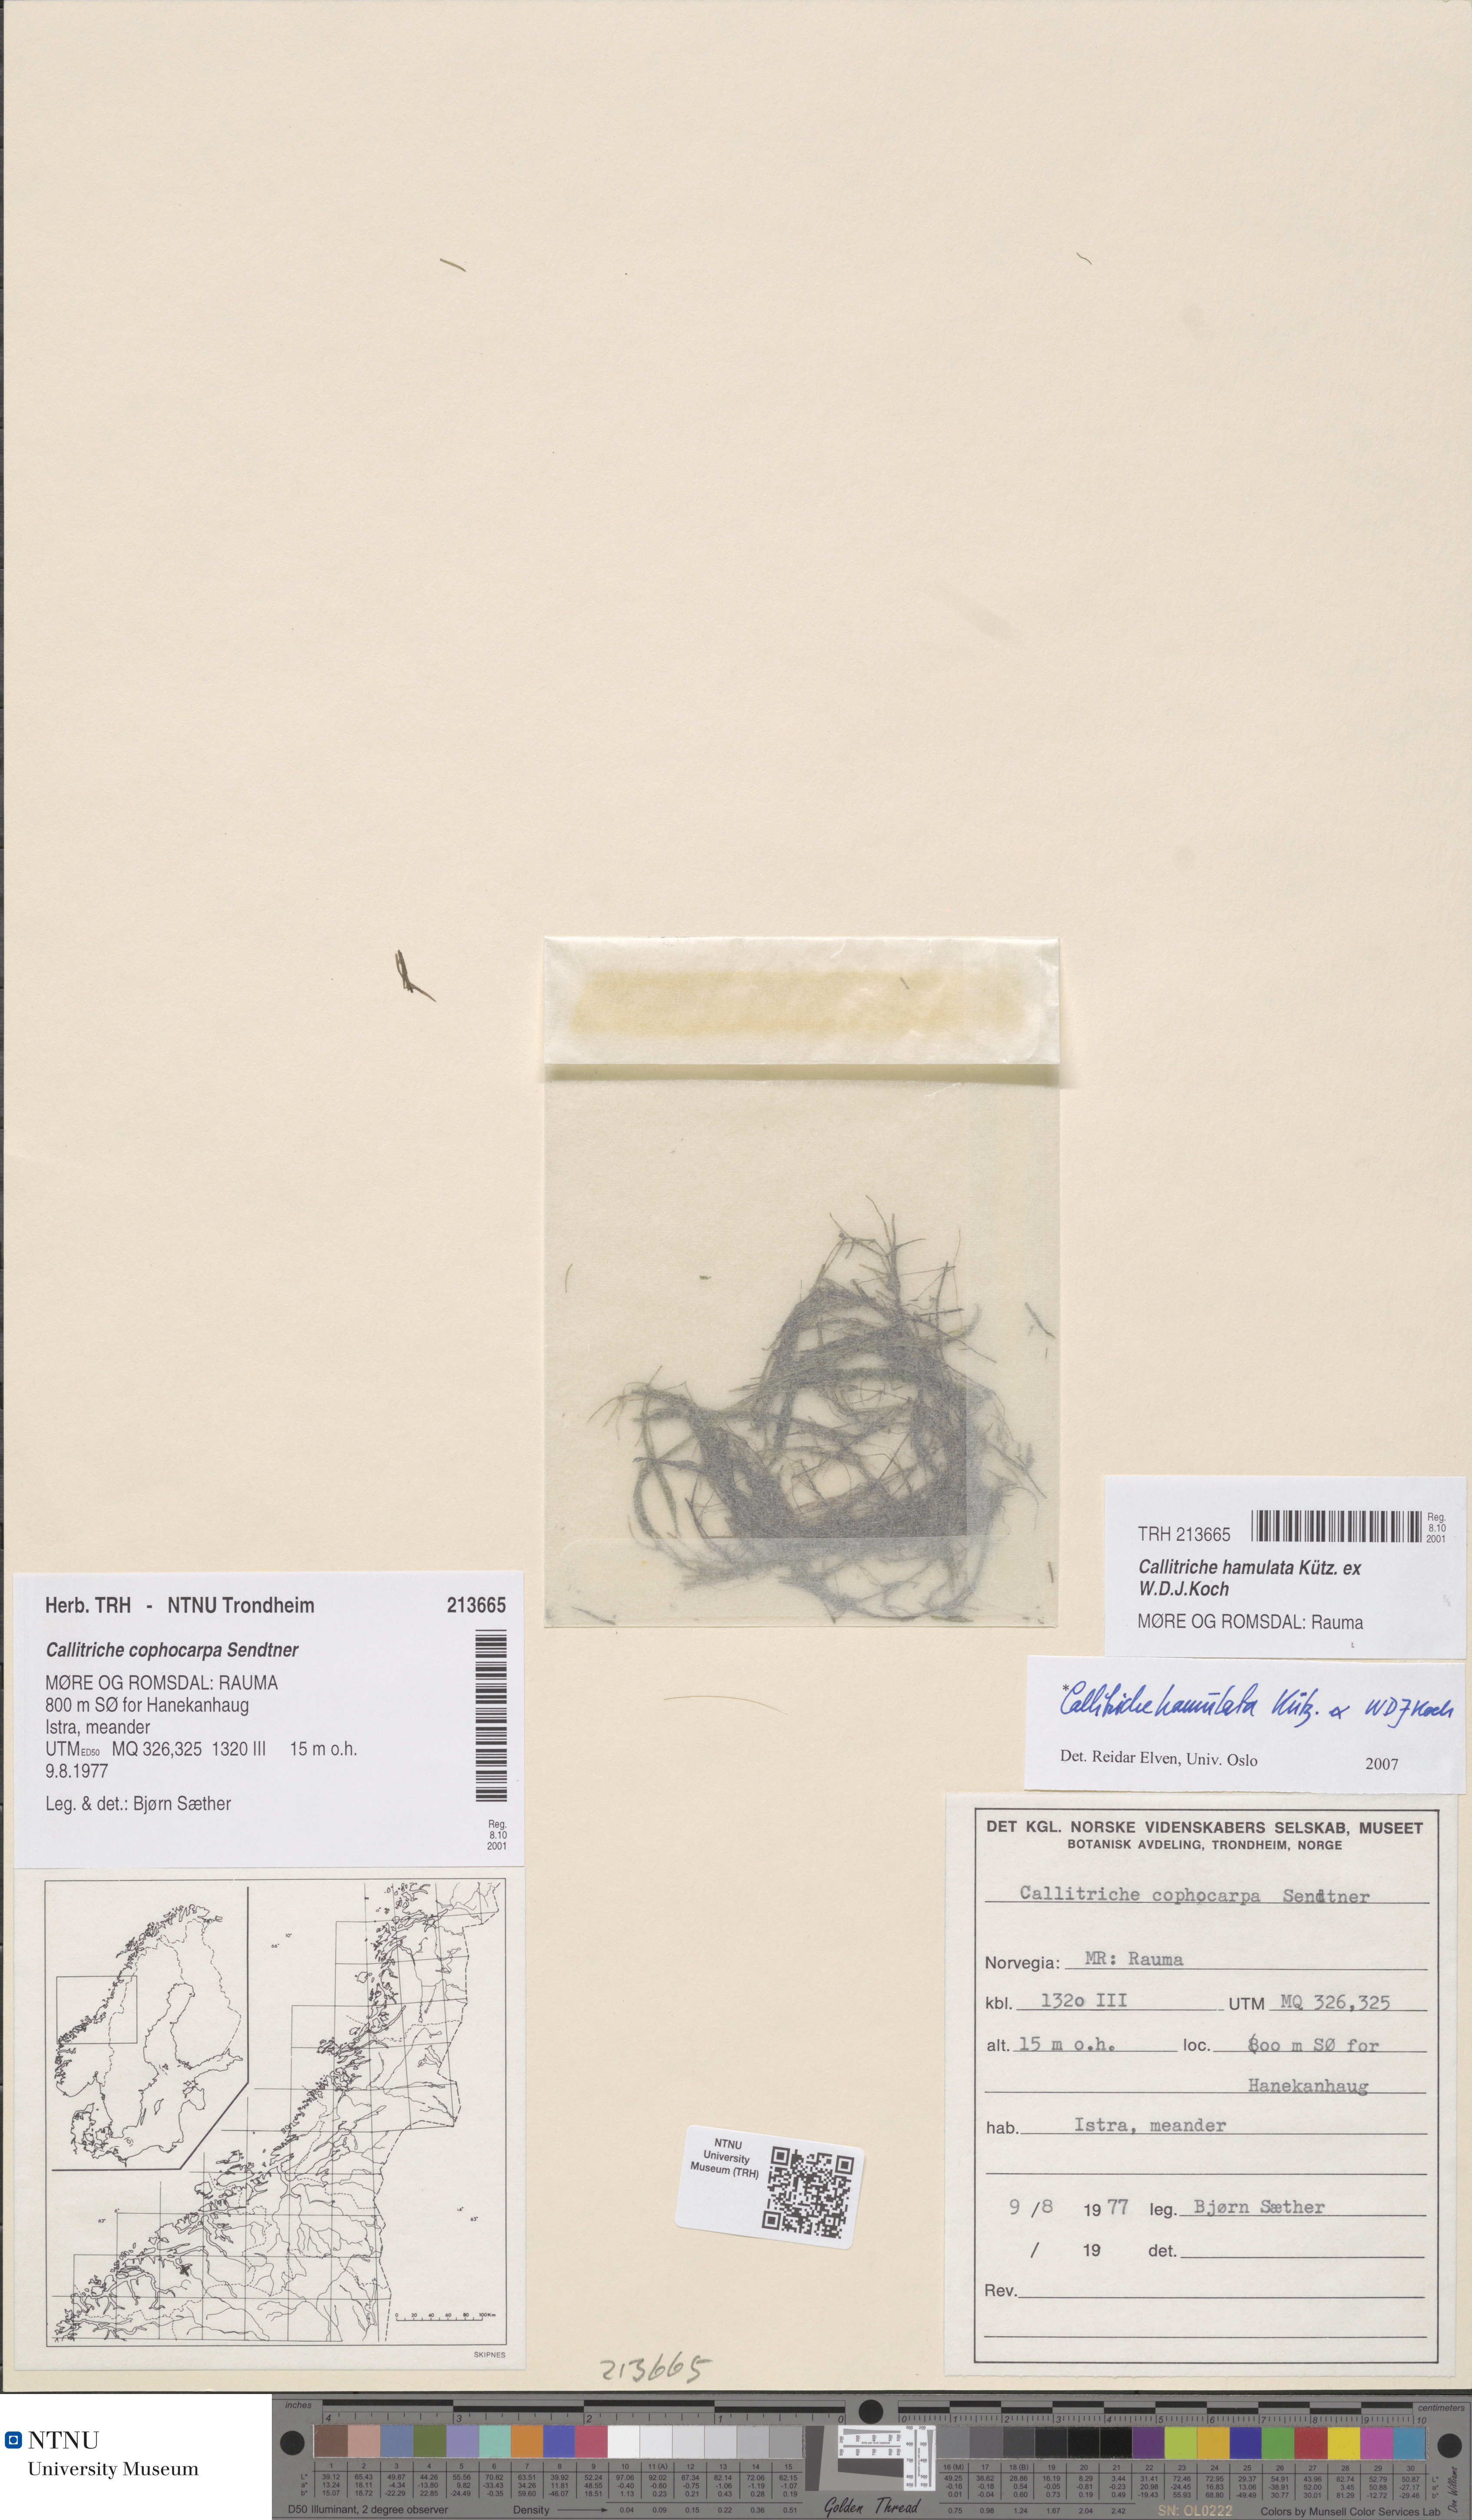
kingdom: Plantae
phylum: Tracheophyta
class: Magnoliopsida
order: Lamiales
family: Plantaginaceae
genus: Callitriche
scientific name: Callitriche hamulata
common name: Intermediate water-starwort
